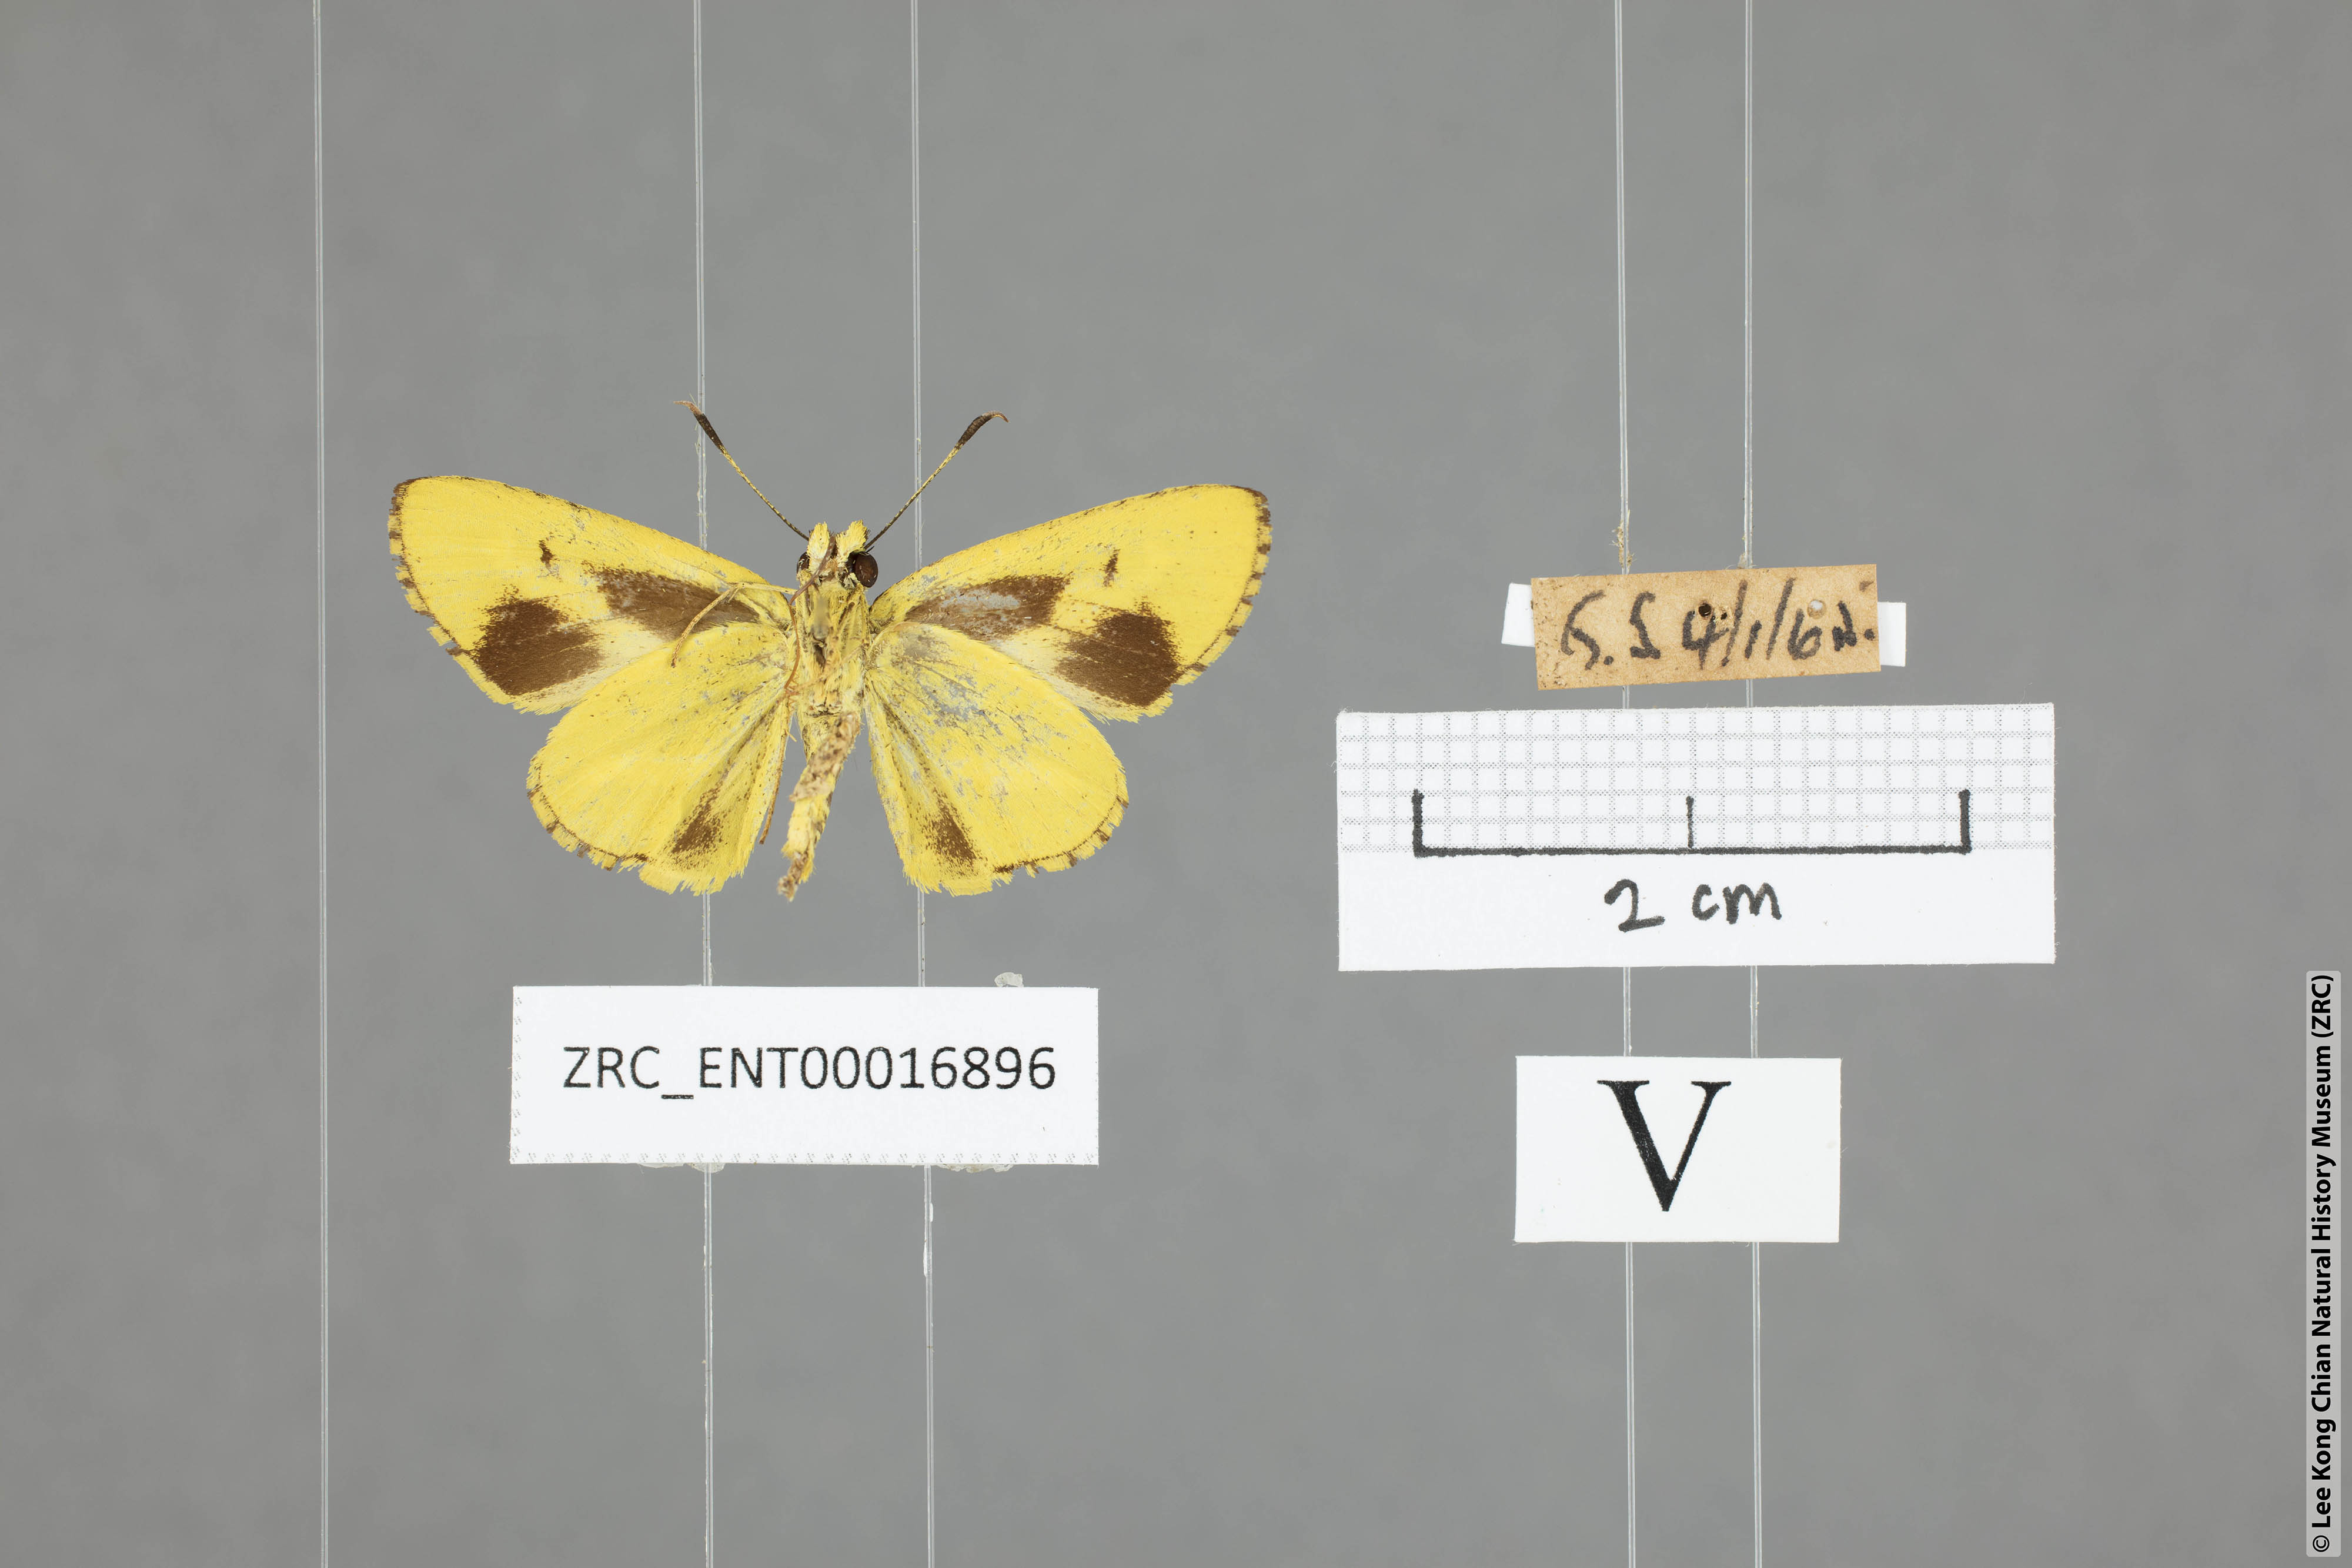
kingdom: Animalia
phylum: Arthropoda
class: Insecta
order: Lepidoptera
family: Hesperiidae
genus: Cupitha
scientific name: Cupitha purreea
